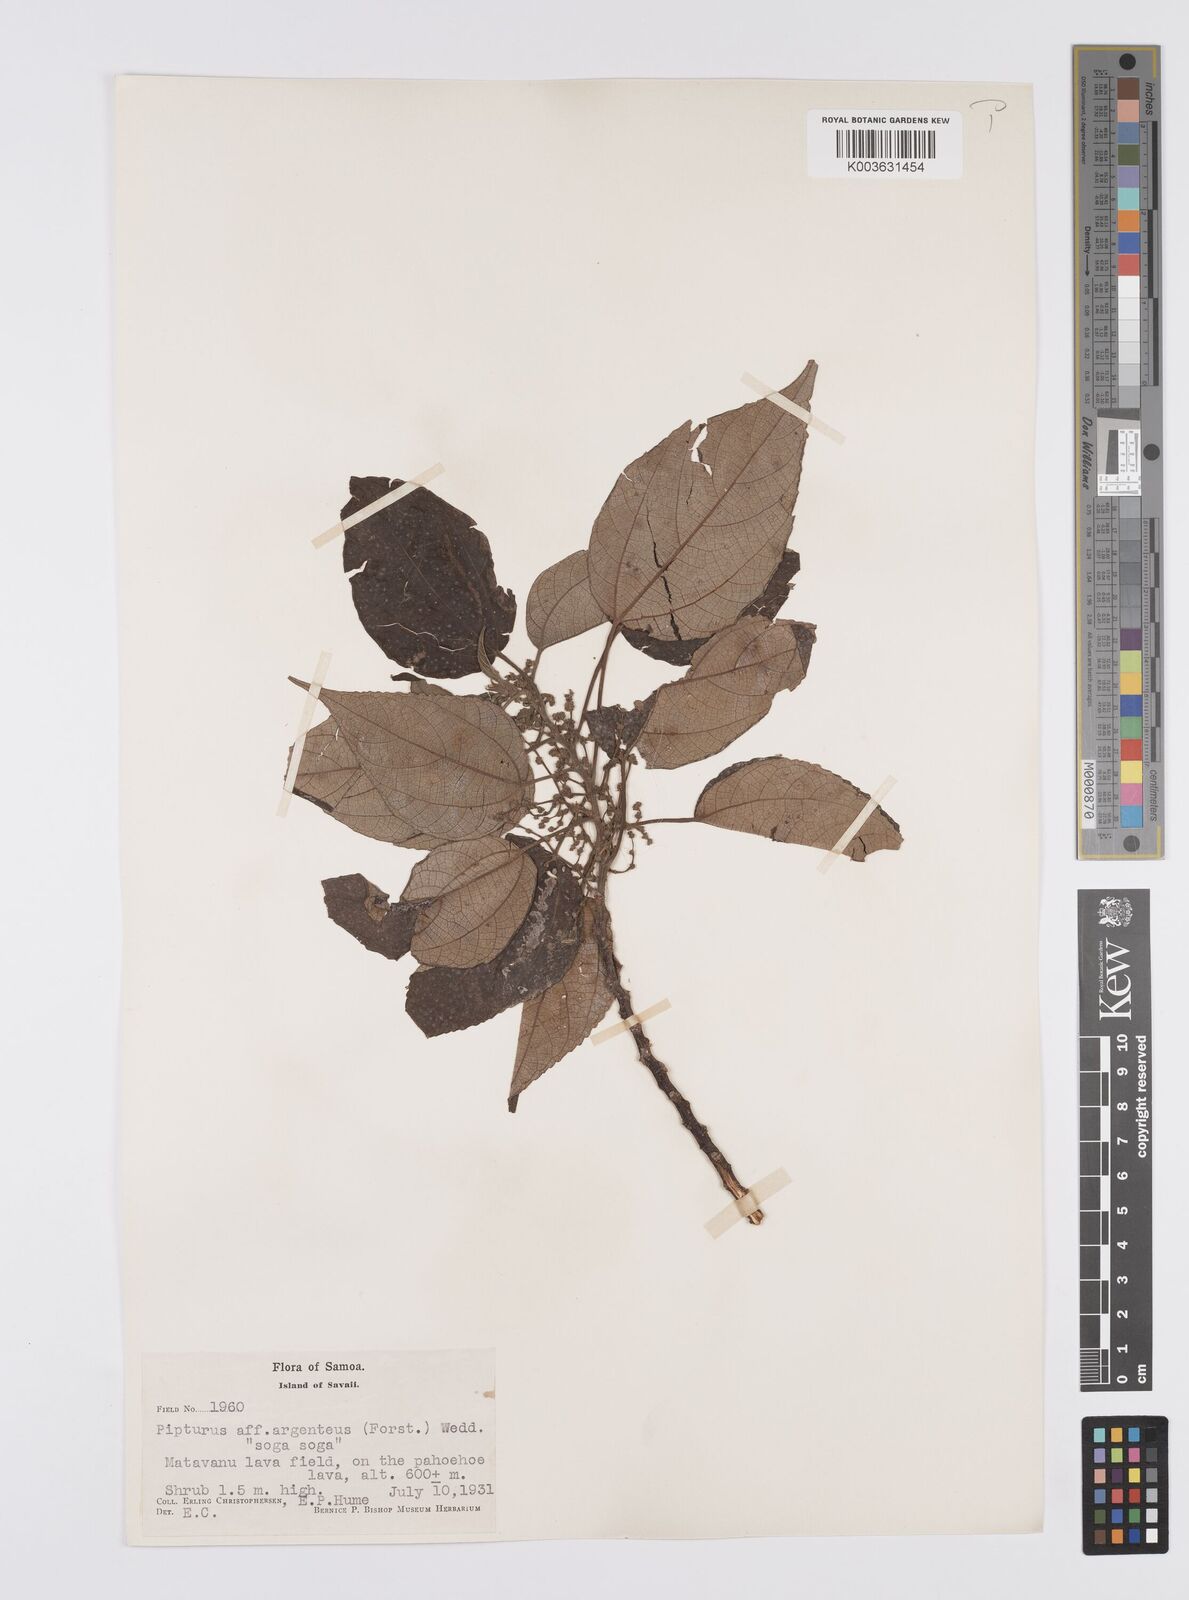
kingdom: Plantae
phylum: Tracheophyta
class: Magnoliopsida
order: Rosales
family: Urticaceae
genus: Pipturus
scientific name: Pipturus argenteus
